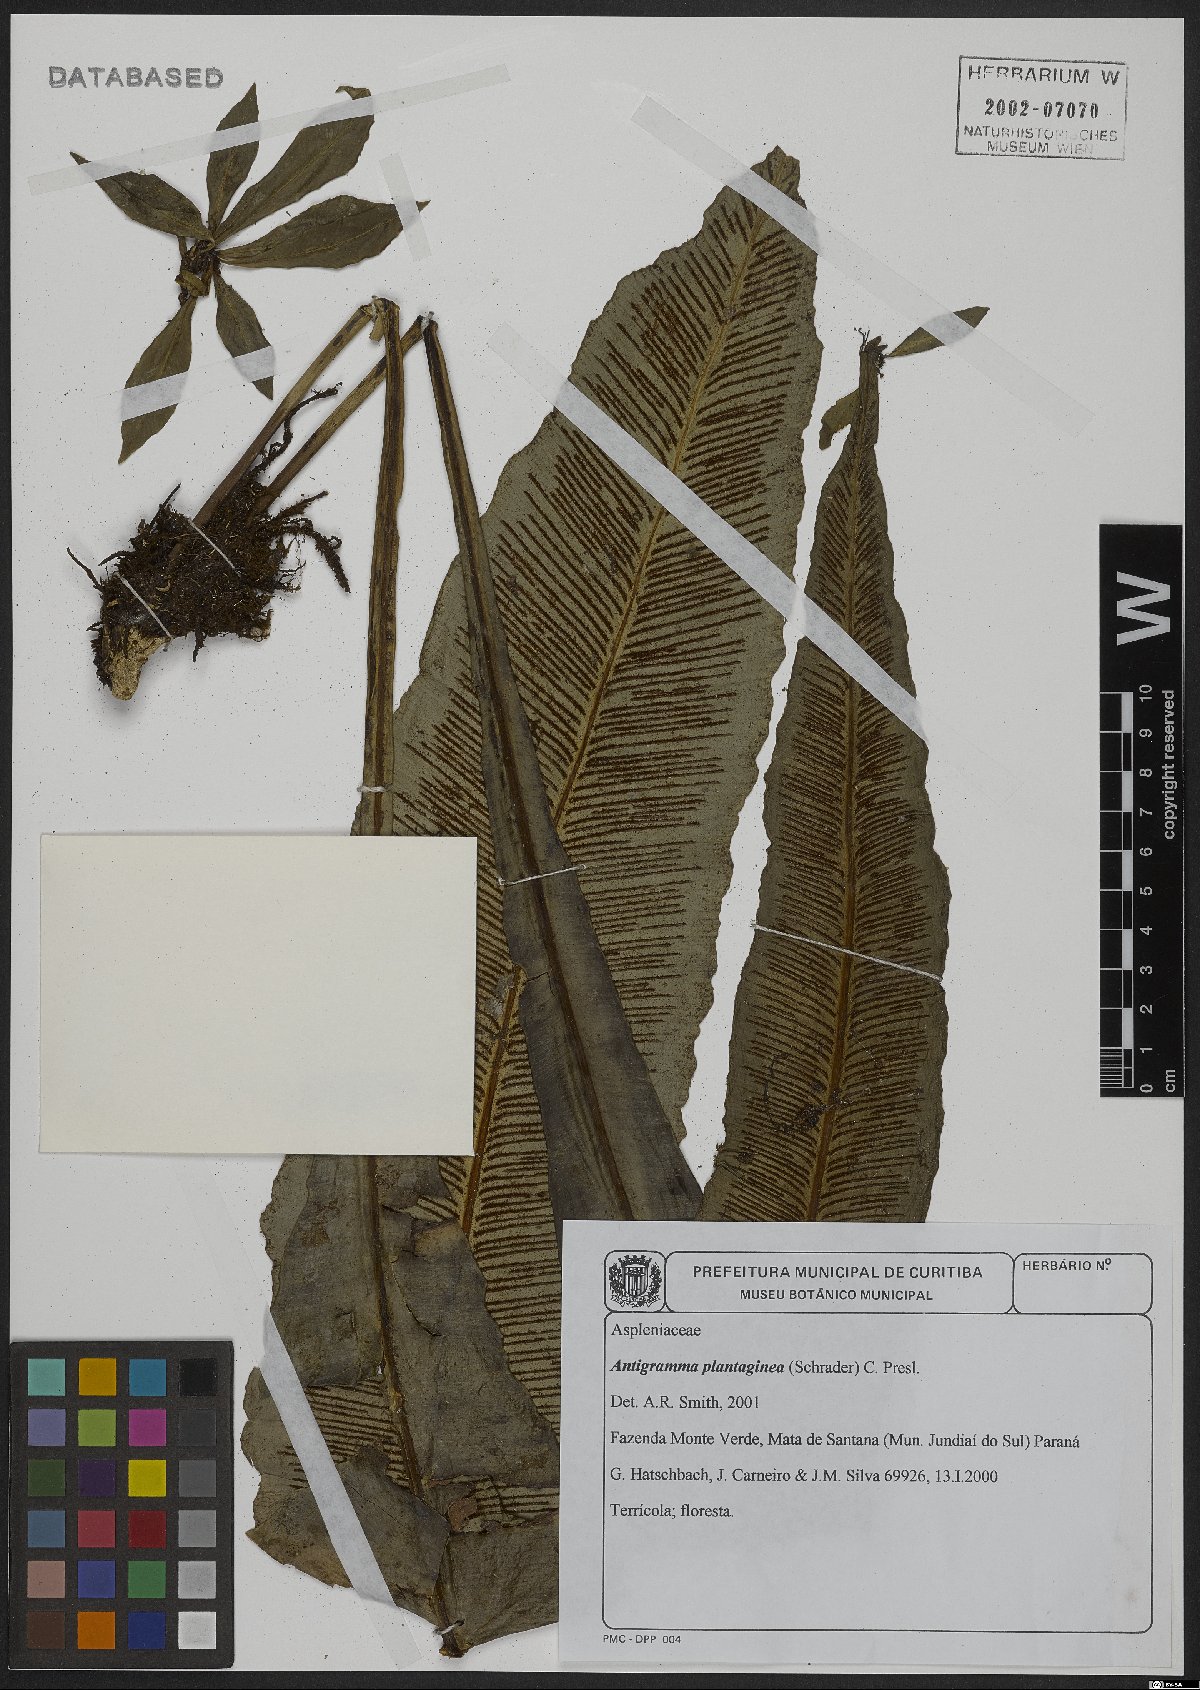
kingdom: Plantae
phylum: Tracheophyta
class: Polypodiopsida
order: Polypodiales
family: Aspleniaceae
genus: Asplenium
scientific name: Asplenium douglasii
